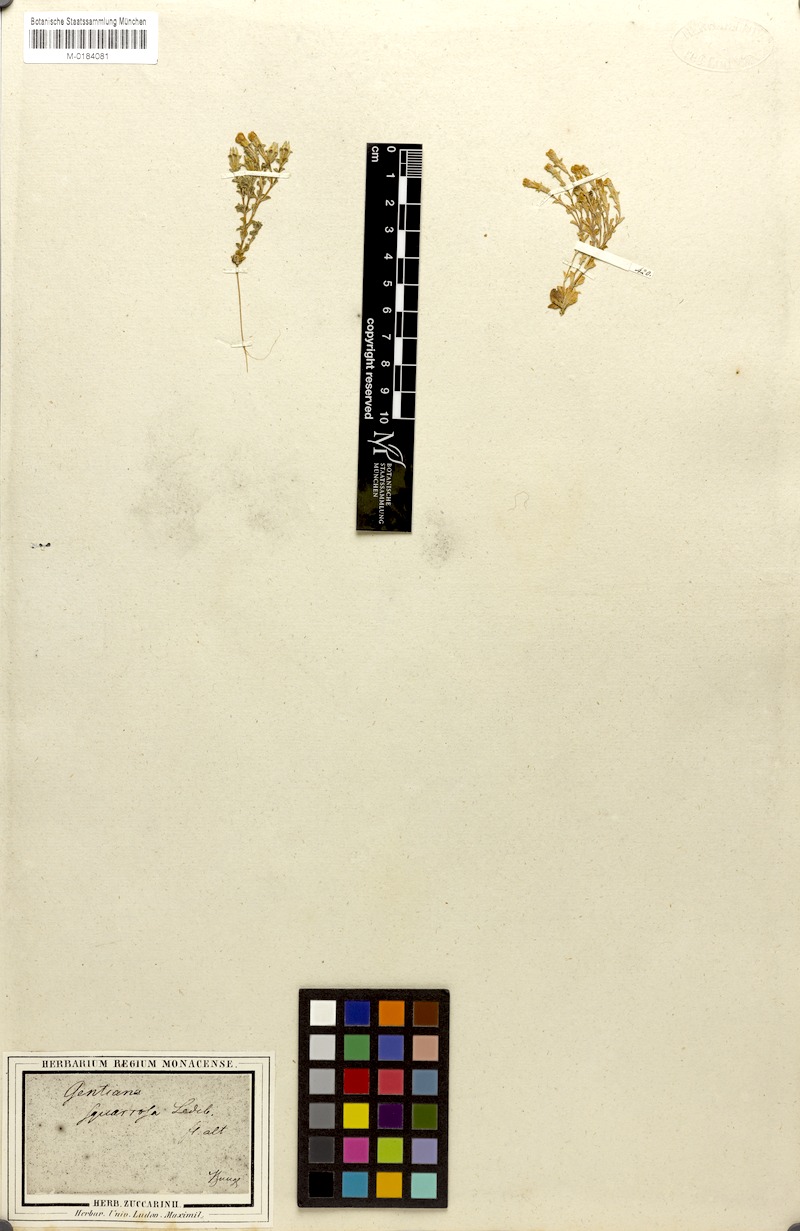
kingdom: Plantae
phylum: Tracheophyta
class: Magnoliopsida
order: Gentianales
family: Gentianaceae
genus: Gentiana
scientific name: Gentiana squarrosa
